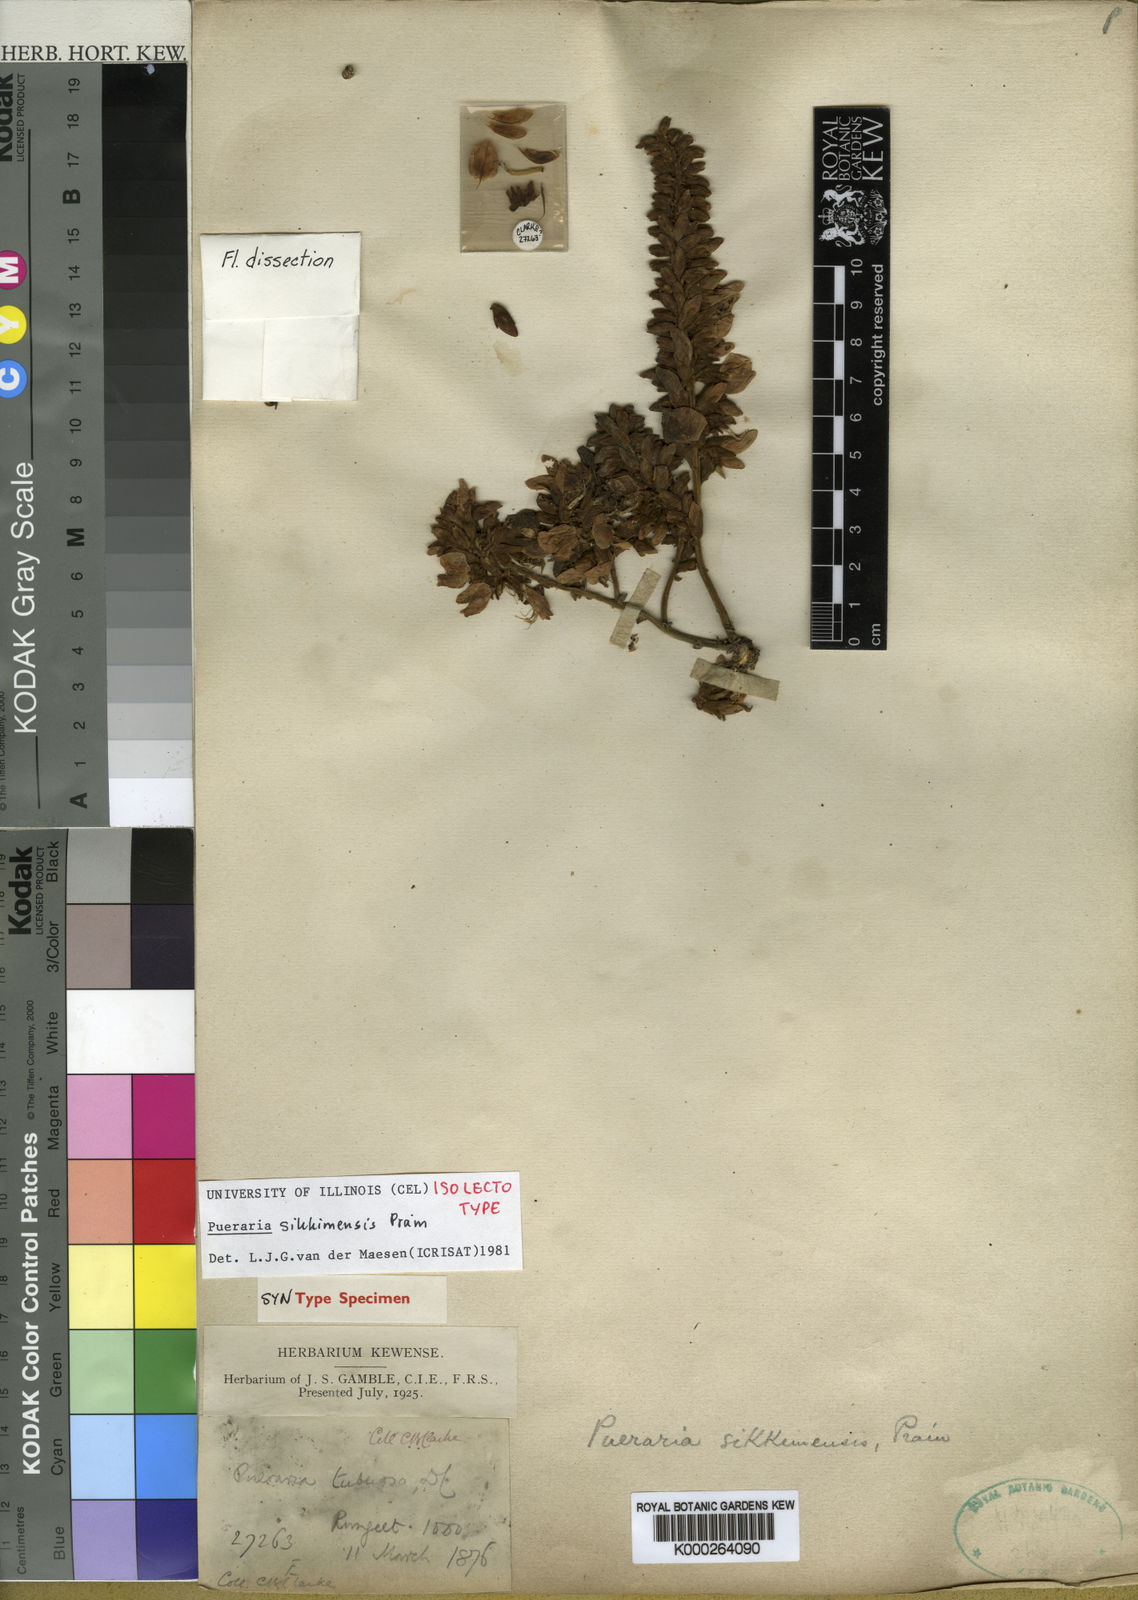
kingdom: Plantae
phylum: Tracheophyta
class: Magnoliopsida
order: Fabales
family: Fabaceae
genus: Pueraria
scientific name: Pueraria sikkimensis
